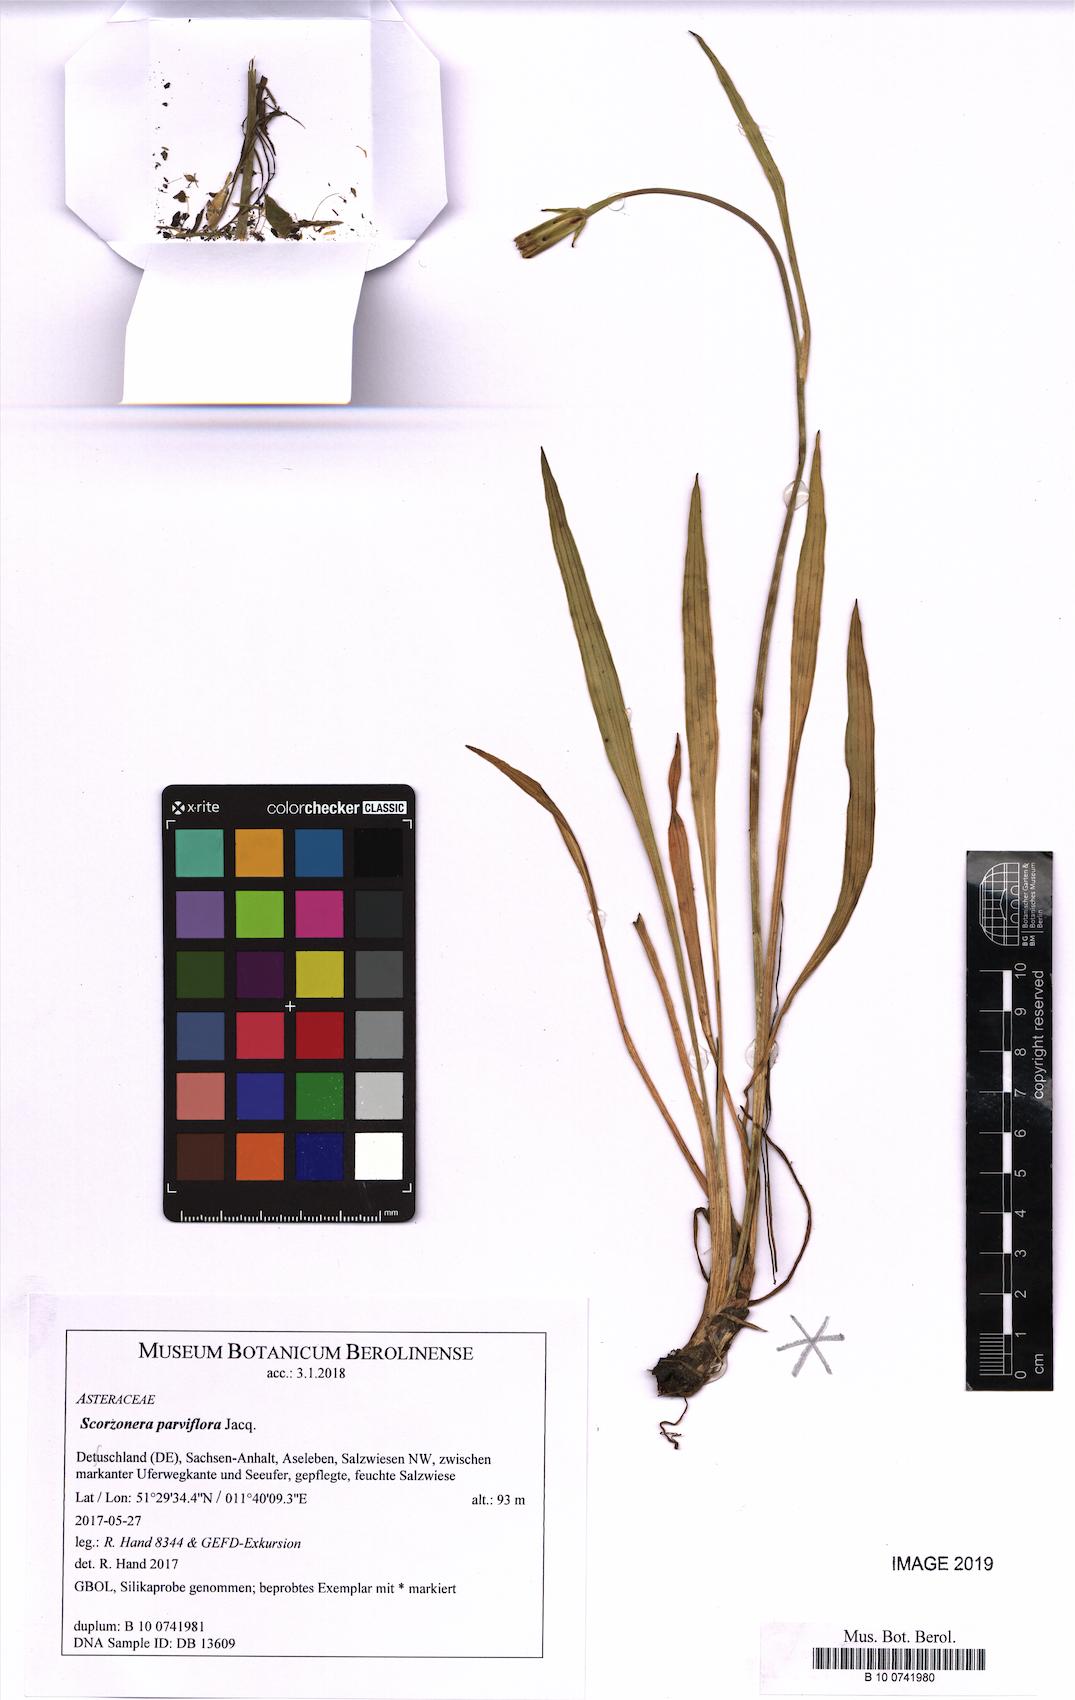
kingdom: Plantae
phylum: Tracheophyta
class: Magnoliopsida
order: Asterales
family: Asteraceae
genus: Scorzonera
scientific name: Scorzonera parviflora
